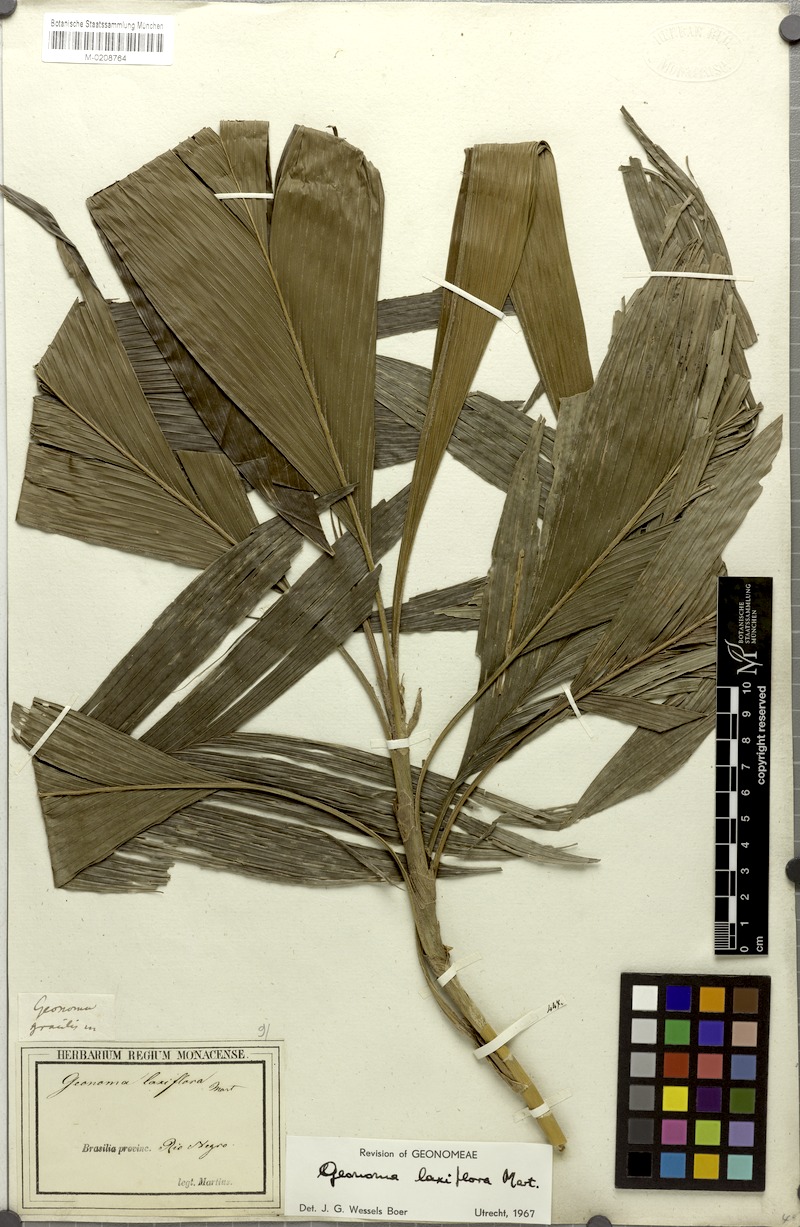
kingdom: Plantae
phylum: Tracheophyta
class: Liliopsida
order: Arecales
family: Arecaceae
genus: Geonoma
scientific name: Geonoma laxiflora
